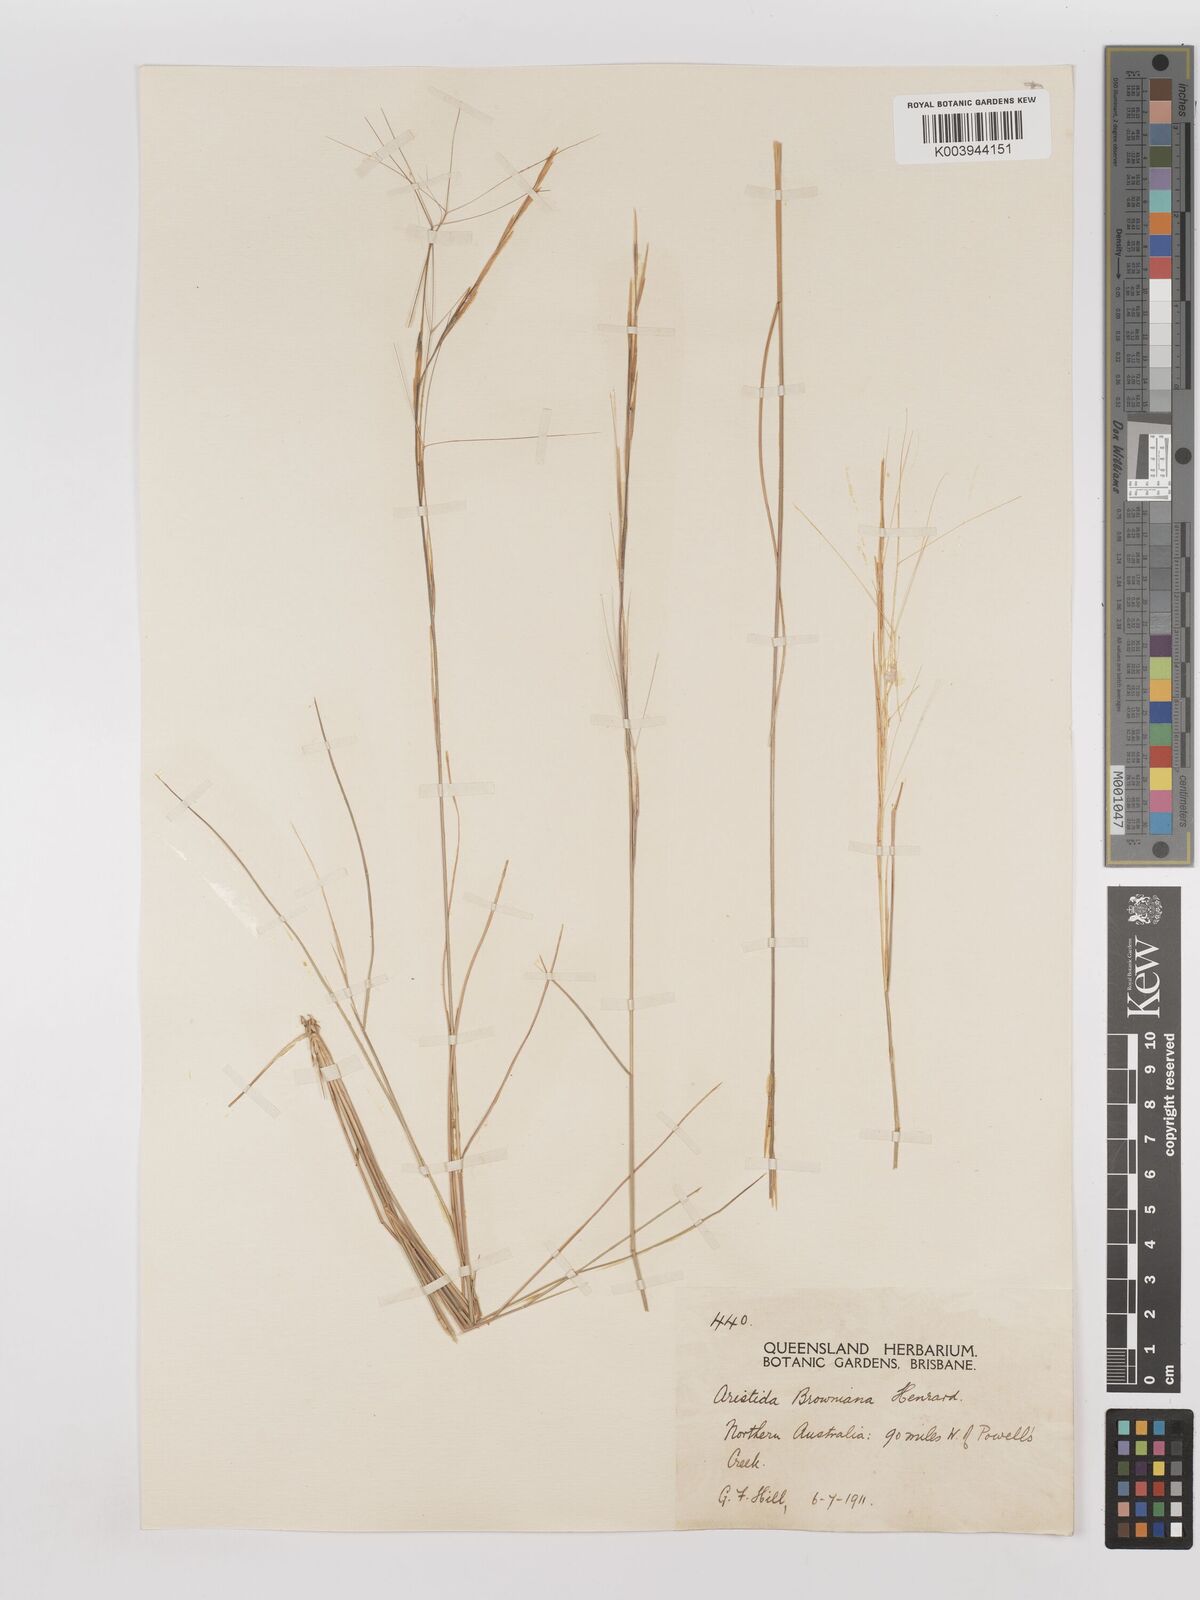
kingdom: Plantae
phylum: Tracheophyta
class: Liliopsida
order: Poales
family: Poaceae
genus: Aristida
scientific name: Aristida holathera
